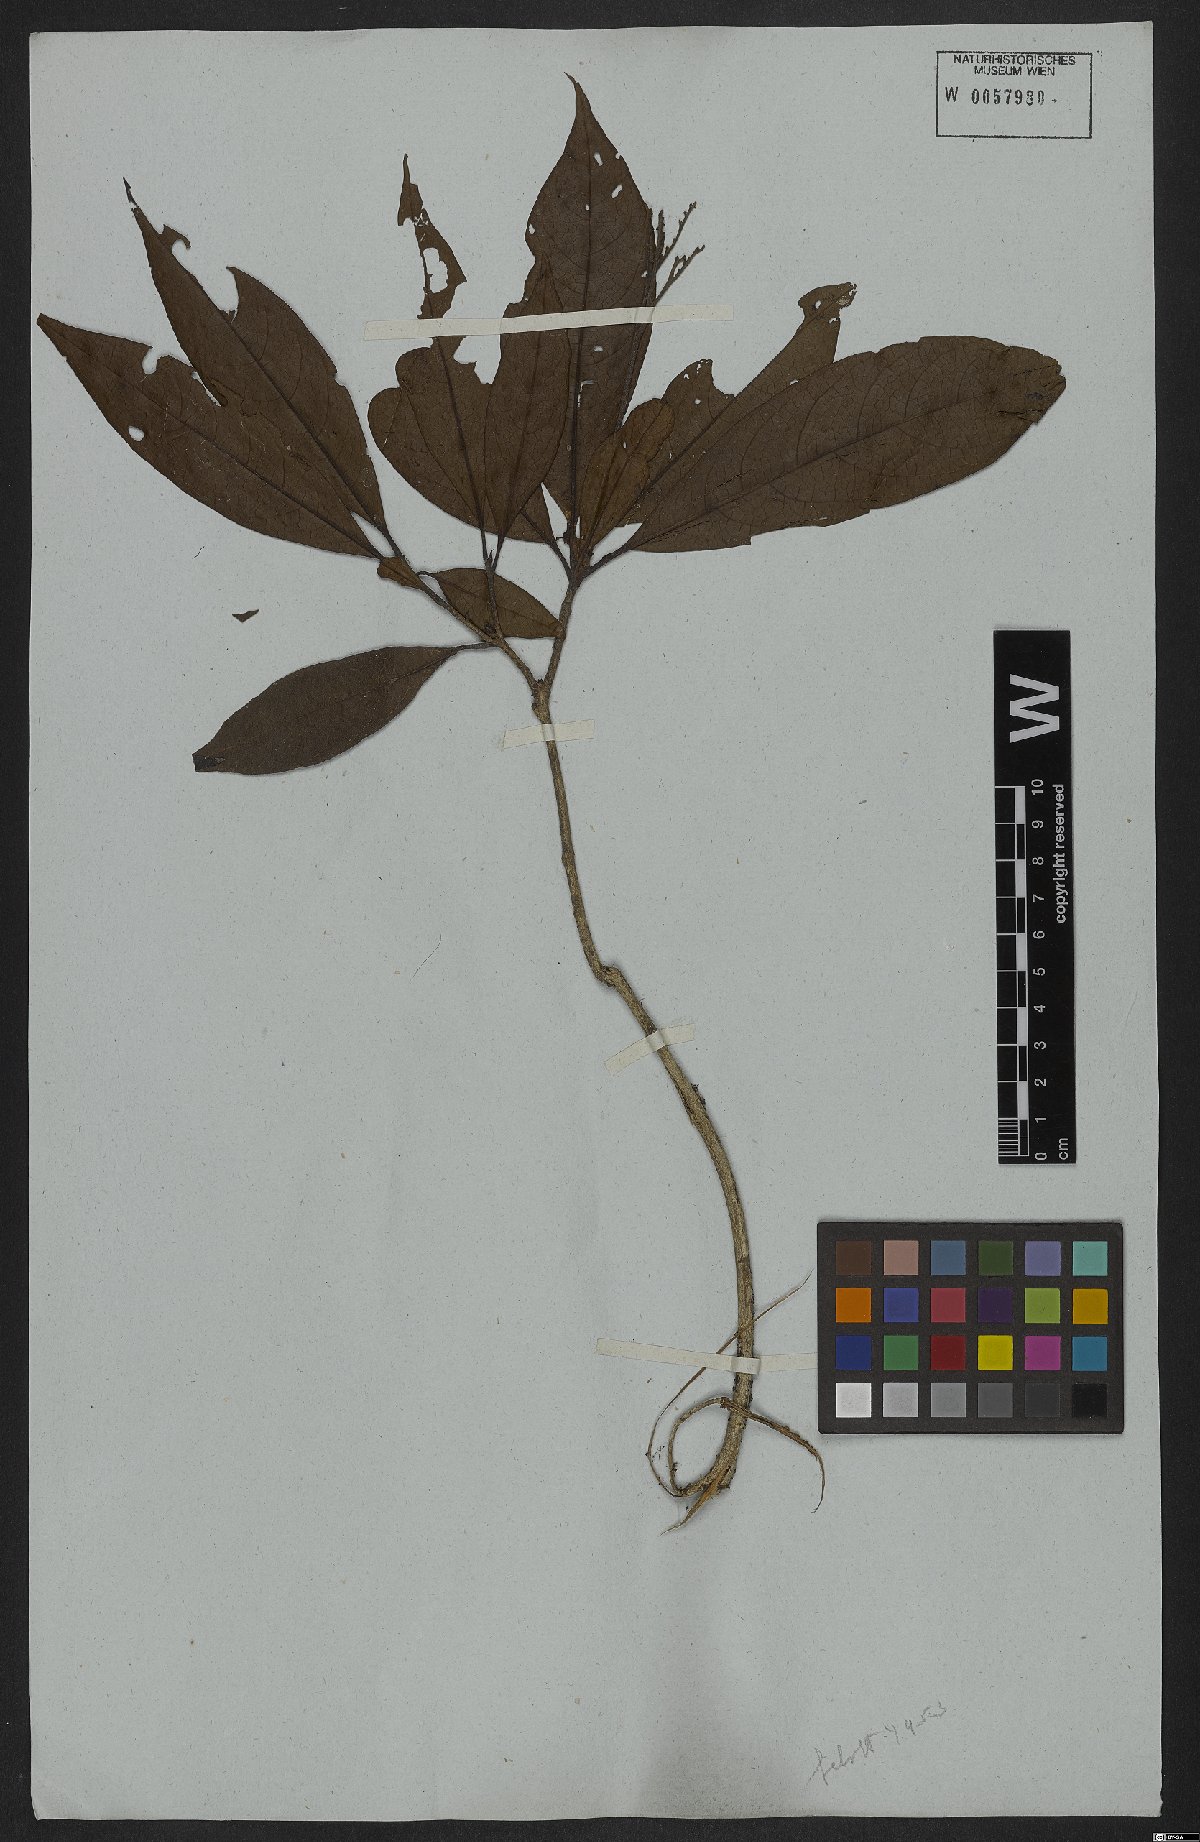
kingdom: Plantae
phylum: Tracheophyta
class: Magnoliopsida
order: Boraginales
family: Cordiaceae
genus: Cordia
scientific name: Cordia glabra
